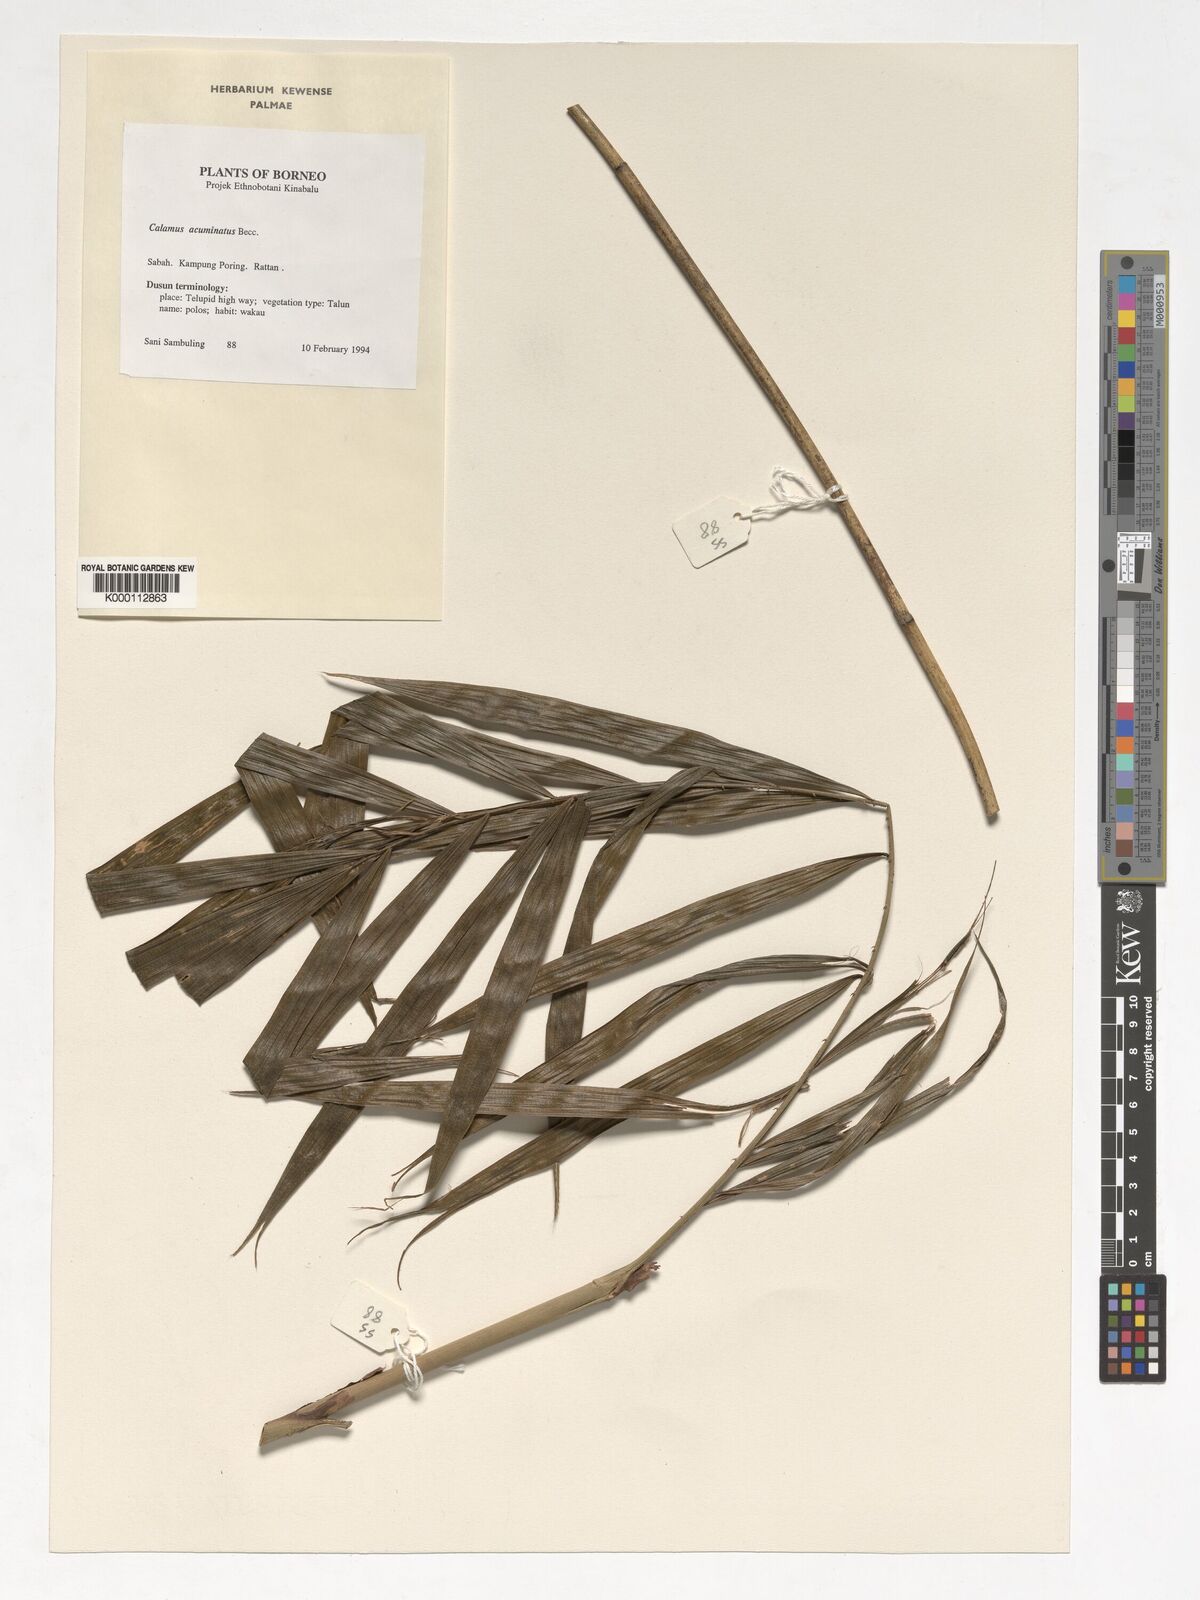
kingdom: Plantae
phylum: Tracheophyta
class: Liliopsida
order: Arecales
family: Arecaceae
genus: Calamus
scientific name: Calamus javensis
